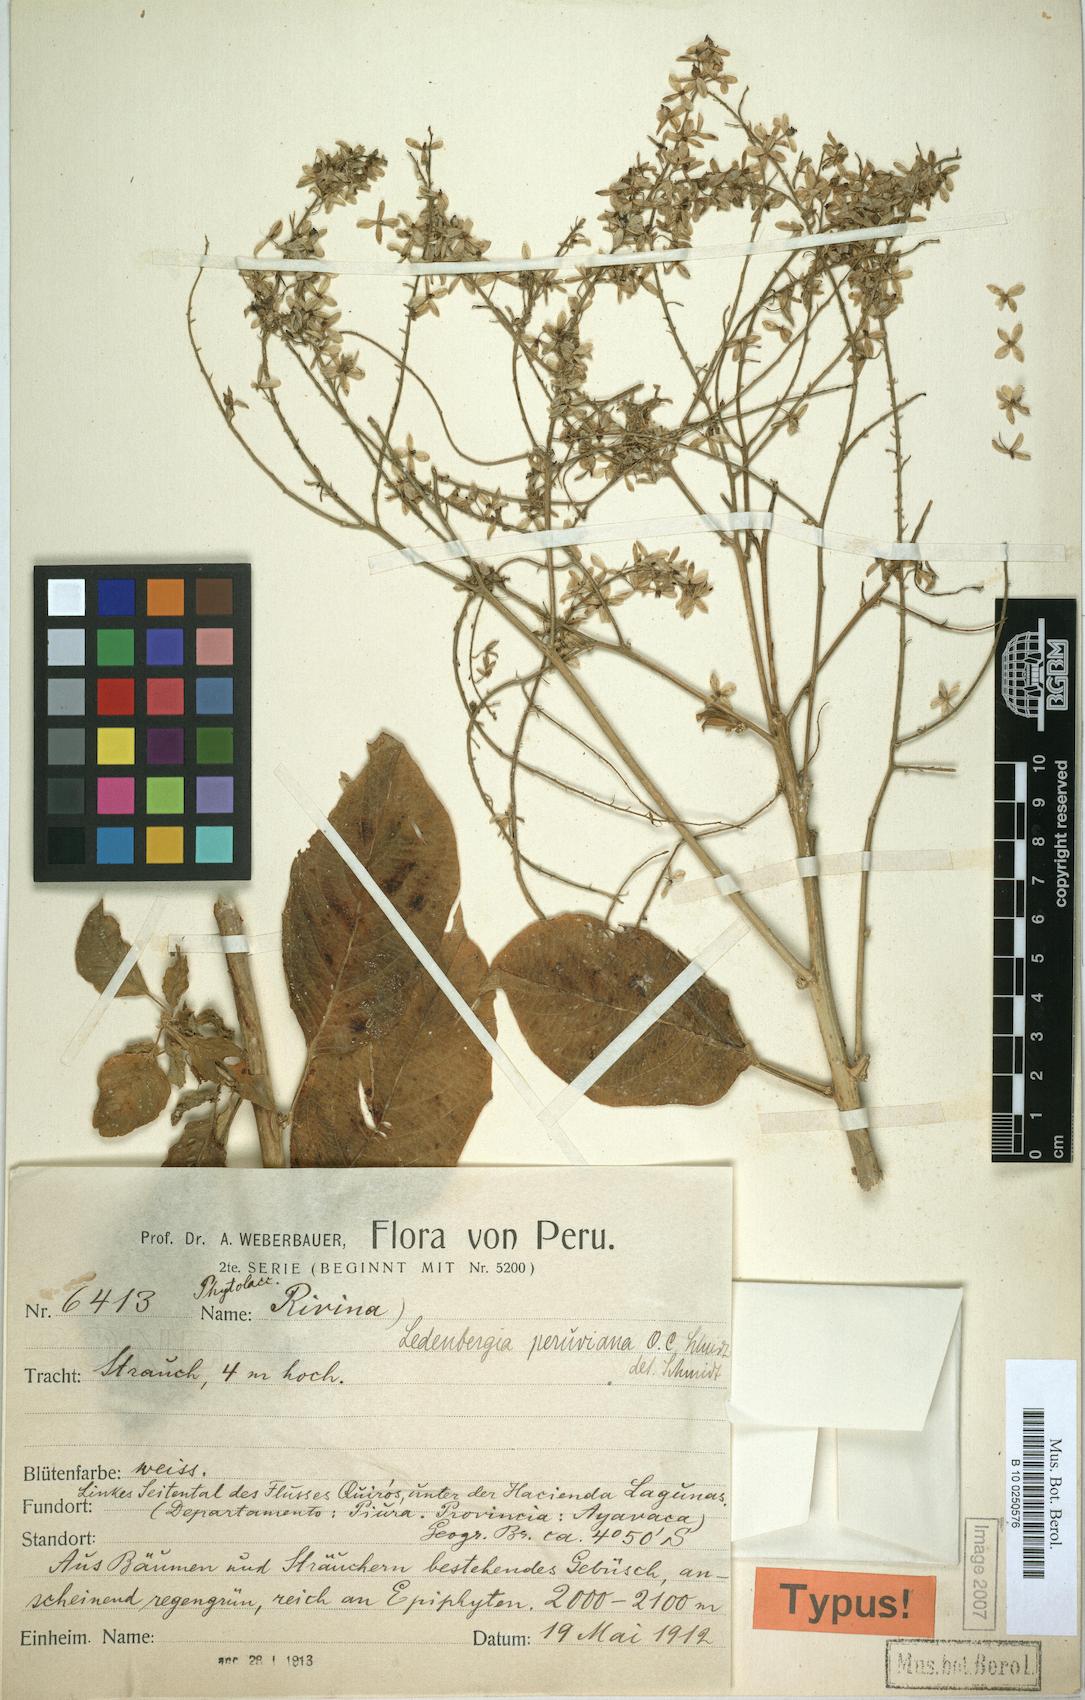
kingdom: Plantae
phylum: Tracheophyta
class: Magnoliopsida
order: Caryophyllales
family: Phytolaccaceae
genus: Ledenbergia
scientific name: Ledenbergia peruviana
